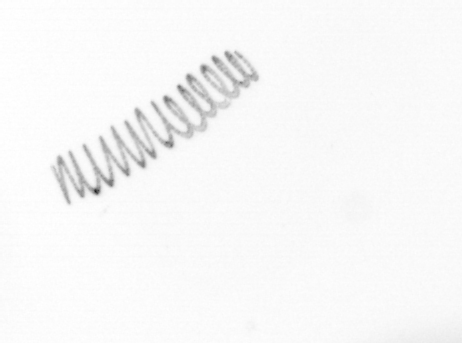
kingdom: Chromista
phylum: Ochrophyta
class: Bacillariophyceae
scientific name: Bacillariophyceae
